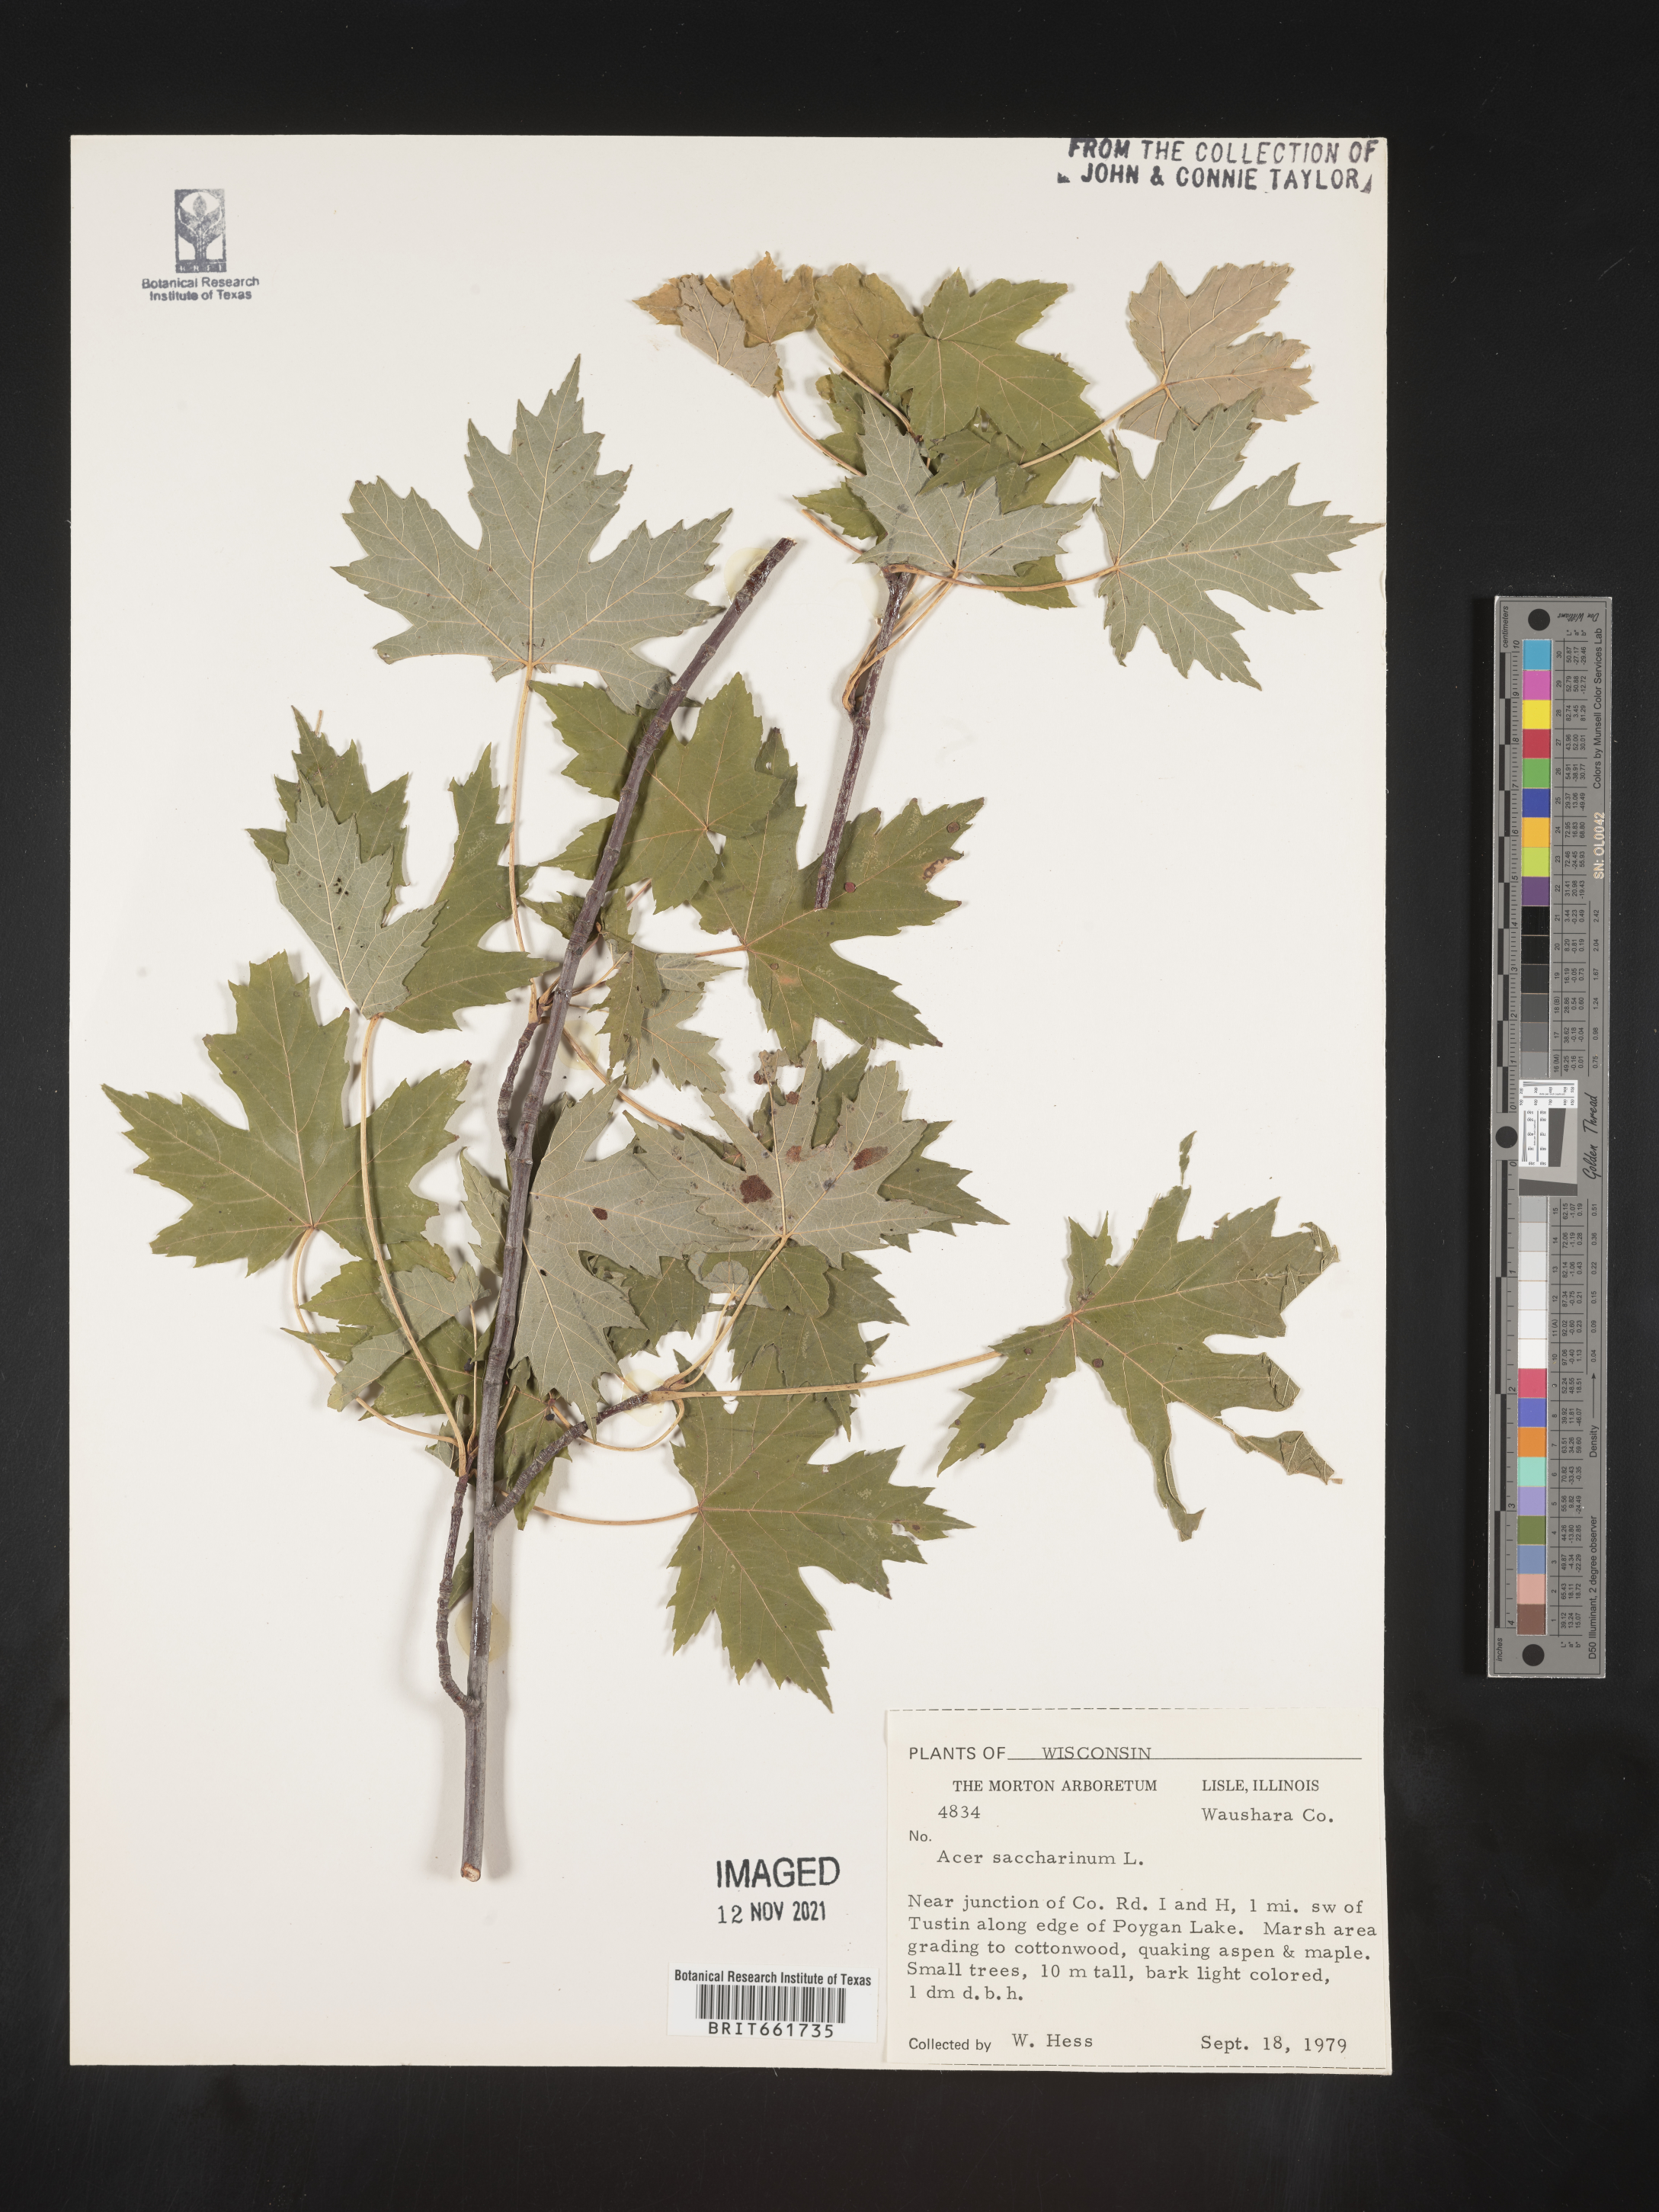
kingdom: Plantae
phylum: Tracheophyta
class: Magnoliopsida
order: Sapindales
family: Sapindaceae
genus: Acer
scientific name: Acer saccharinum
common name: Silver maple
